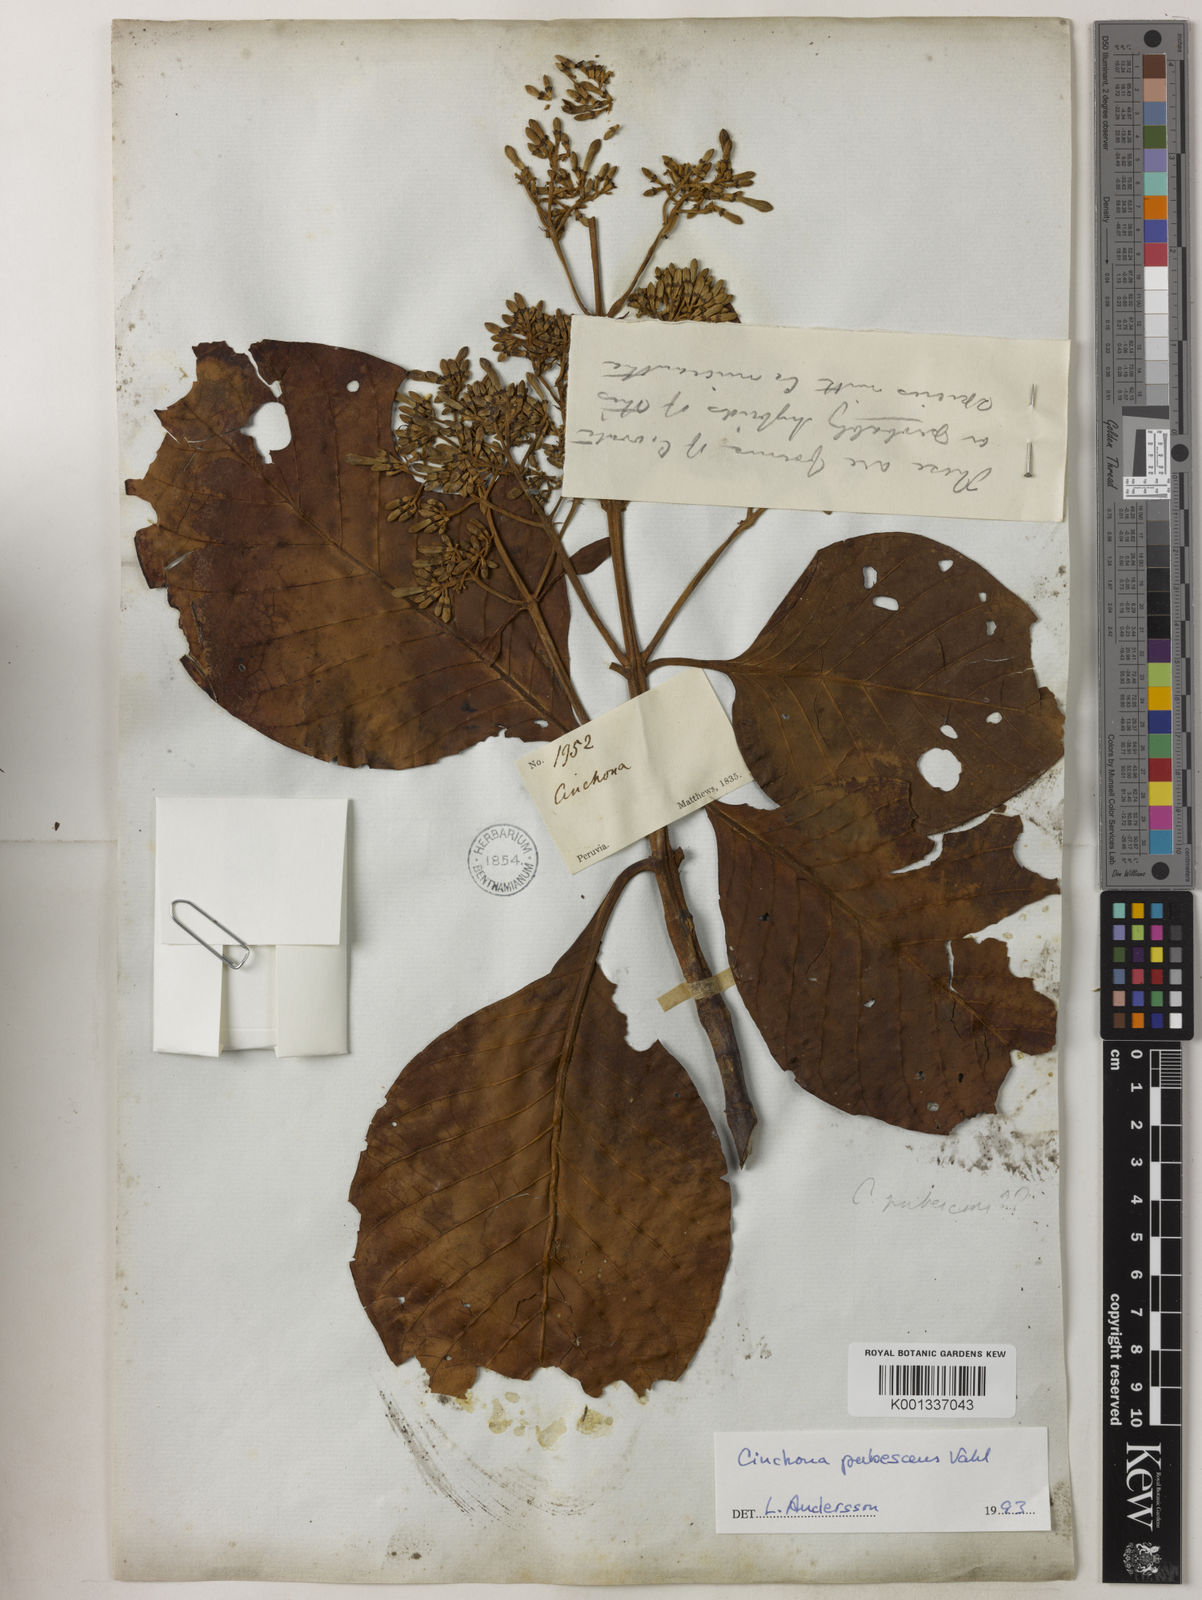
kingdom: Plantae
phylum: Tracheophyta
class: Magnoliopsida
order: Gentianales
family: Rubiaceae
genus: Cinchona
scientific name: Cinchona pubescens
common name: Quinine
